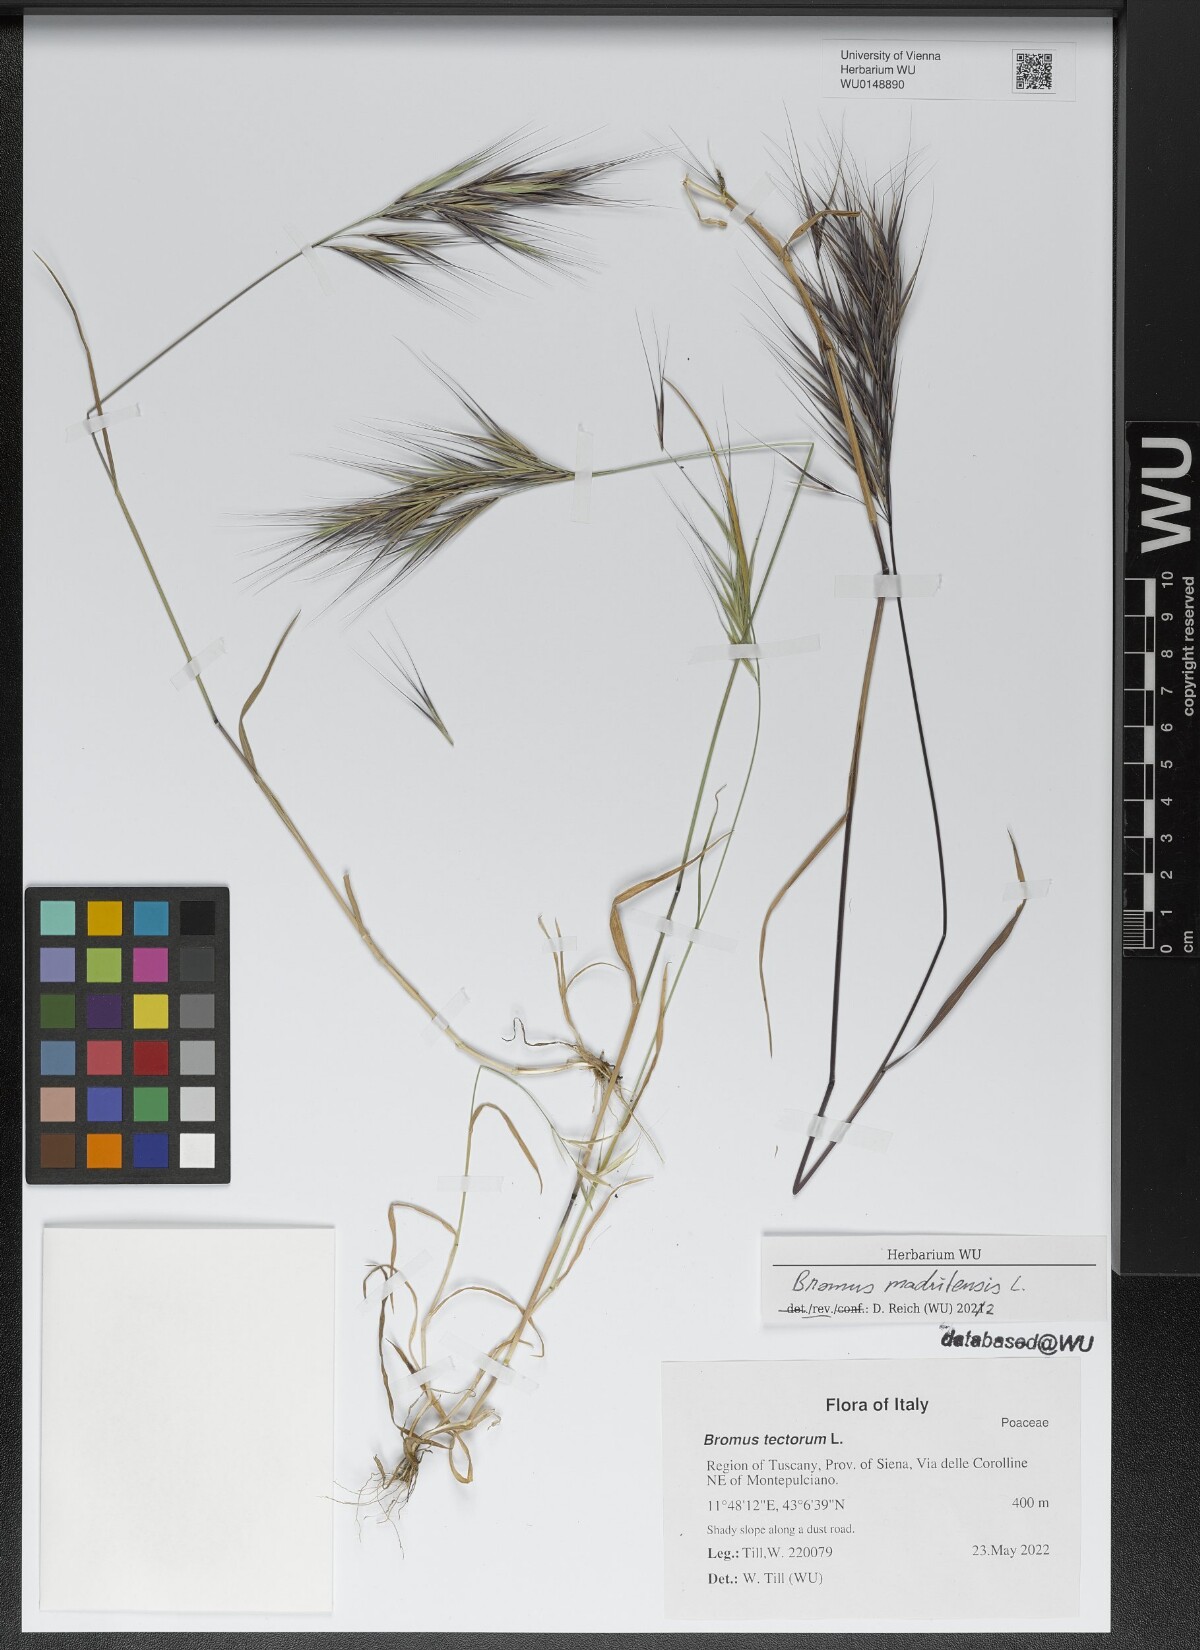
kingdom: Plantae
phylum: Tracheophyta
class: Liliopsida
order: Poales
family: Poaceae
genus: Bromus
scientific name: Bromus madritensis
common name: Compact brome
